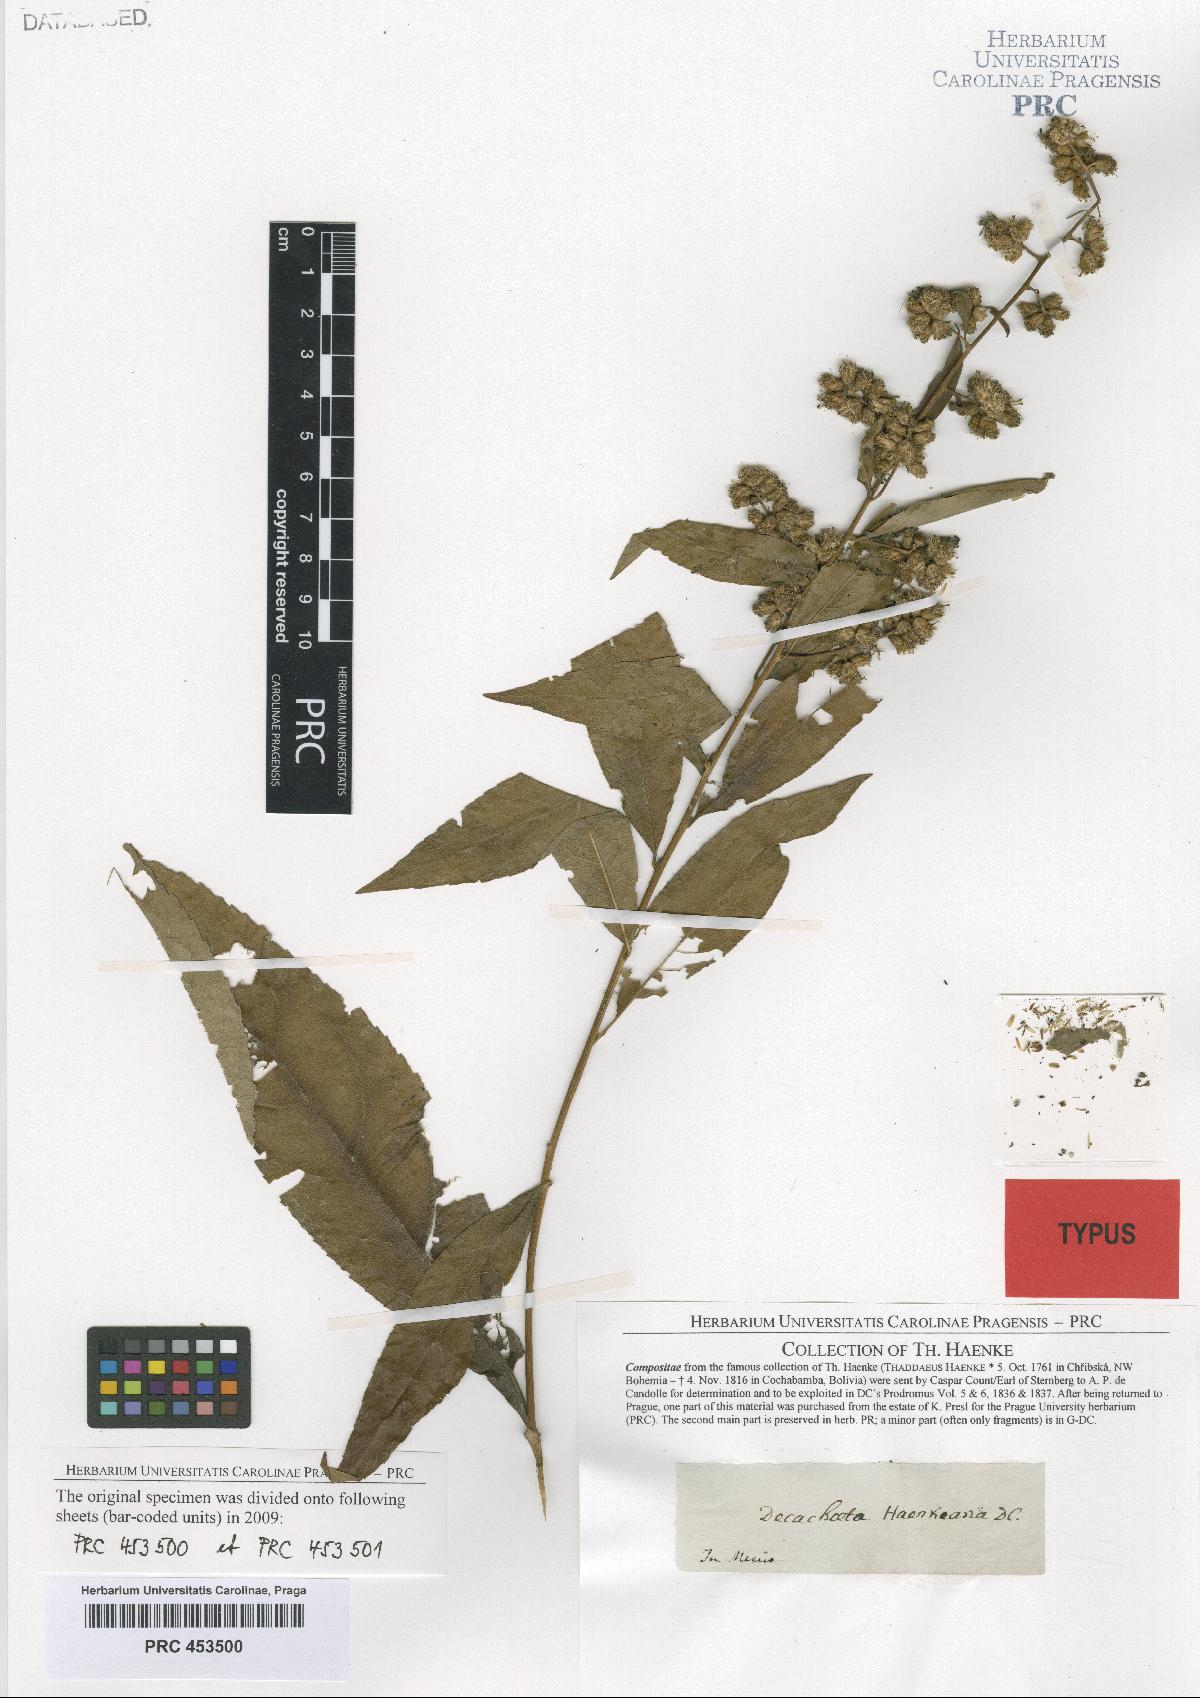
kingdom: Plantae
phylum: Tracheophyta
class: Magnoliopsida
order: Asterales
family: Asteraceae
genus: Decachaeta
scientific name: Decachaeta haenkeana
